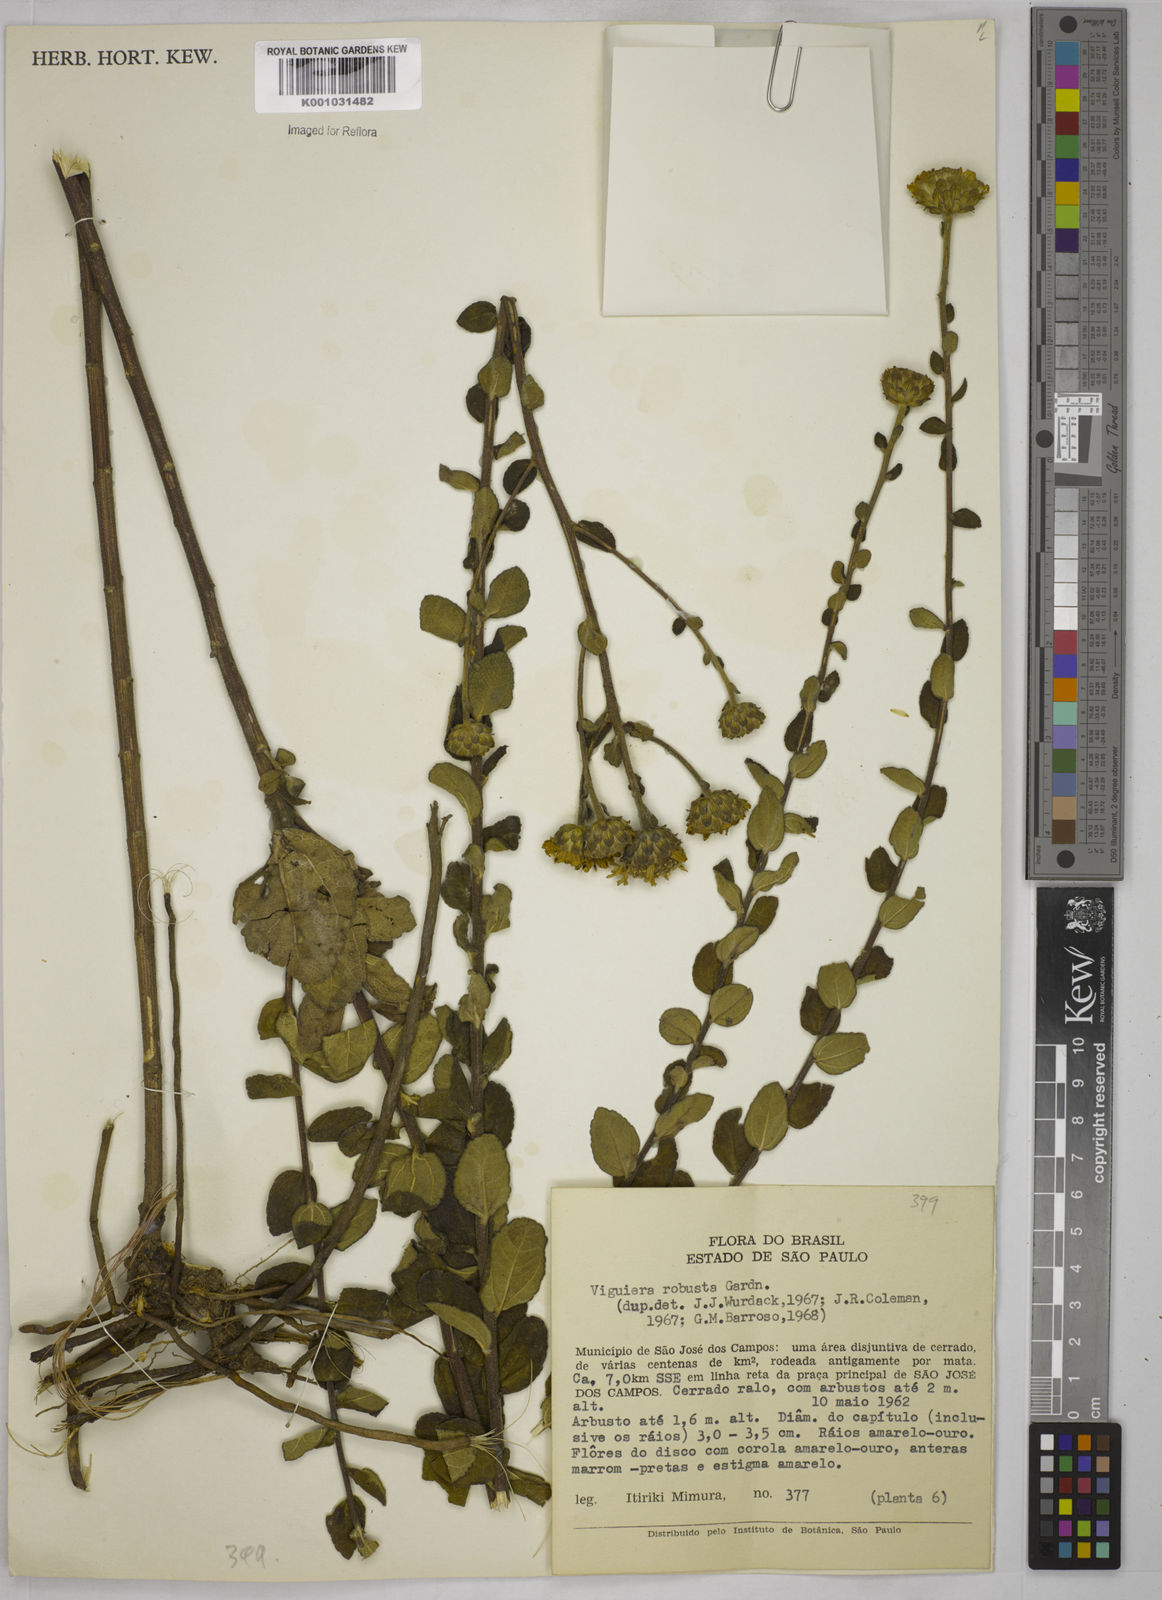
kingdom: Plantae
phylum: Tracheophyta
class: Magnoliopsida
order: Asterales
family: Asteraceae
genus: Aldama
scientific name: Aldama robusta
